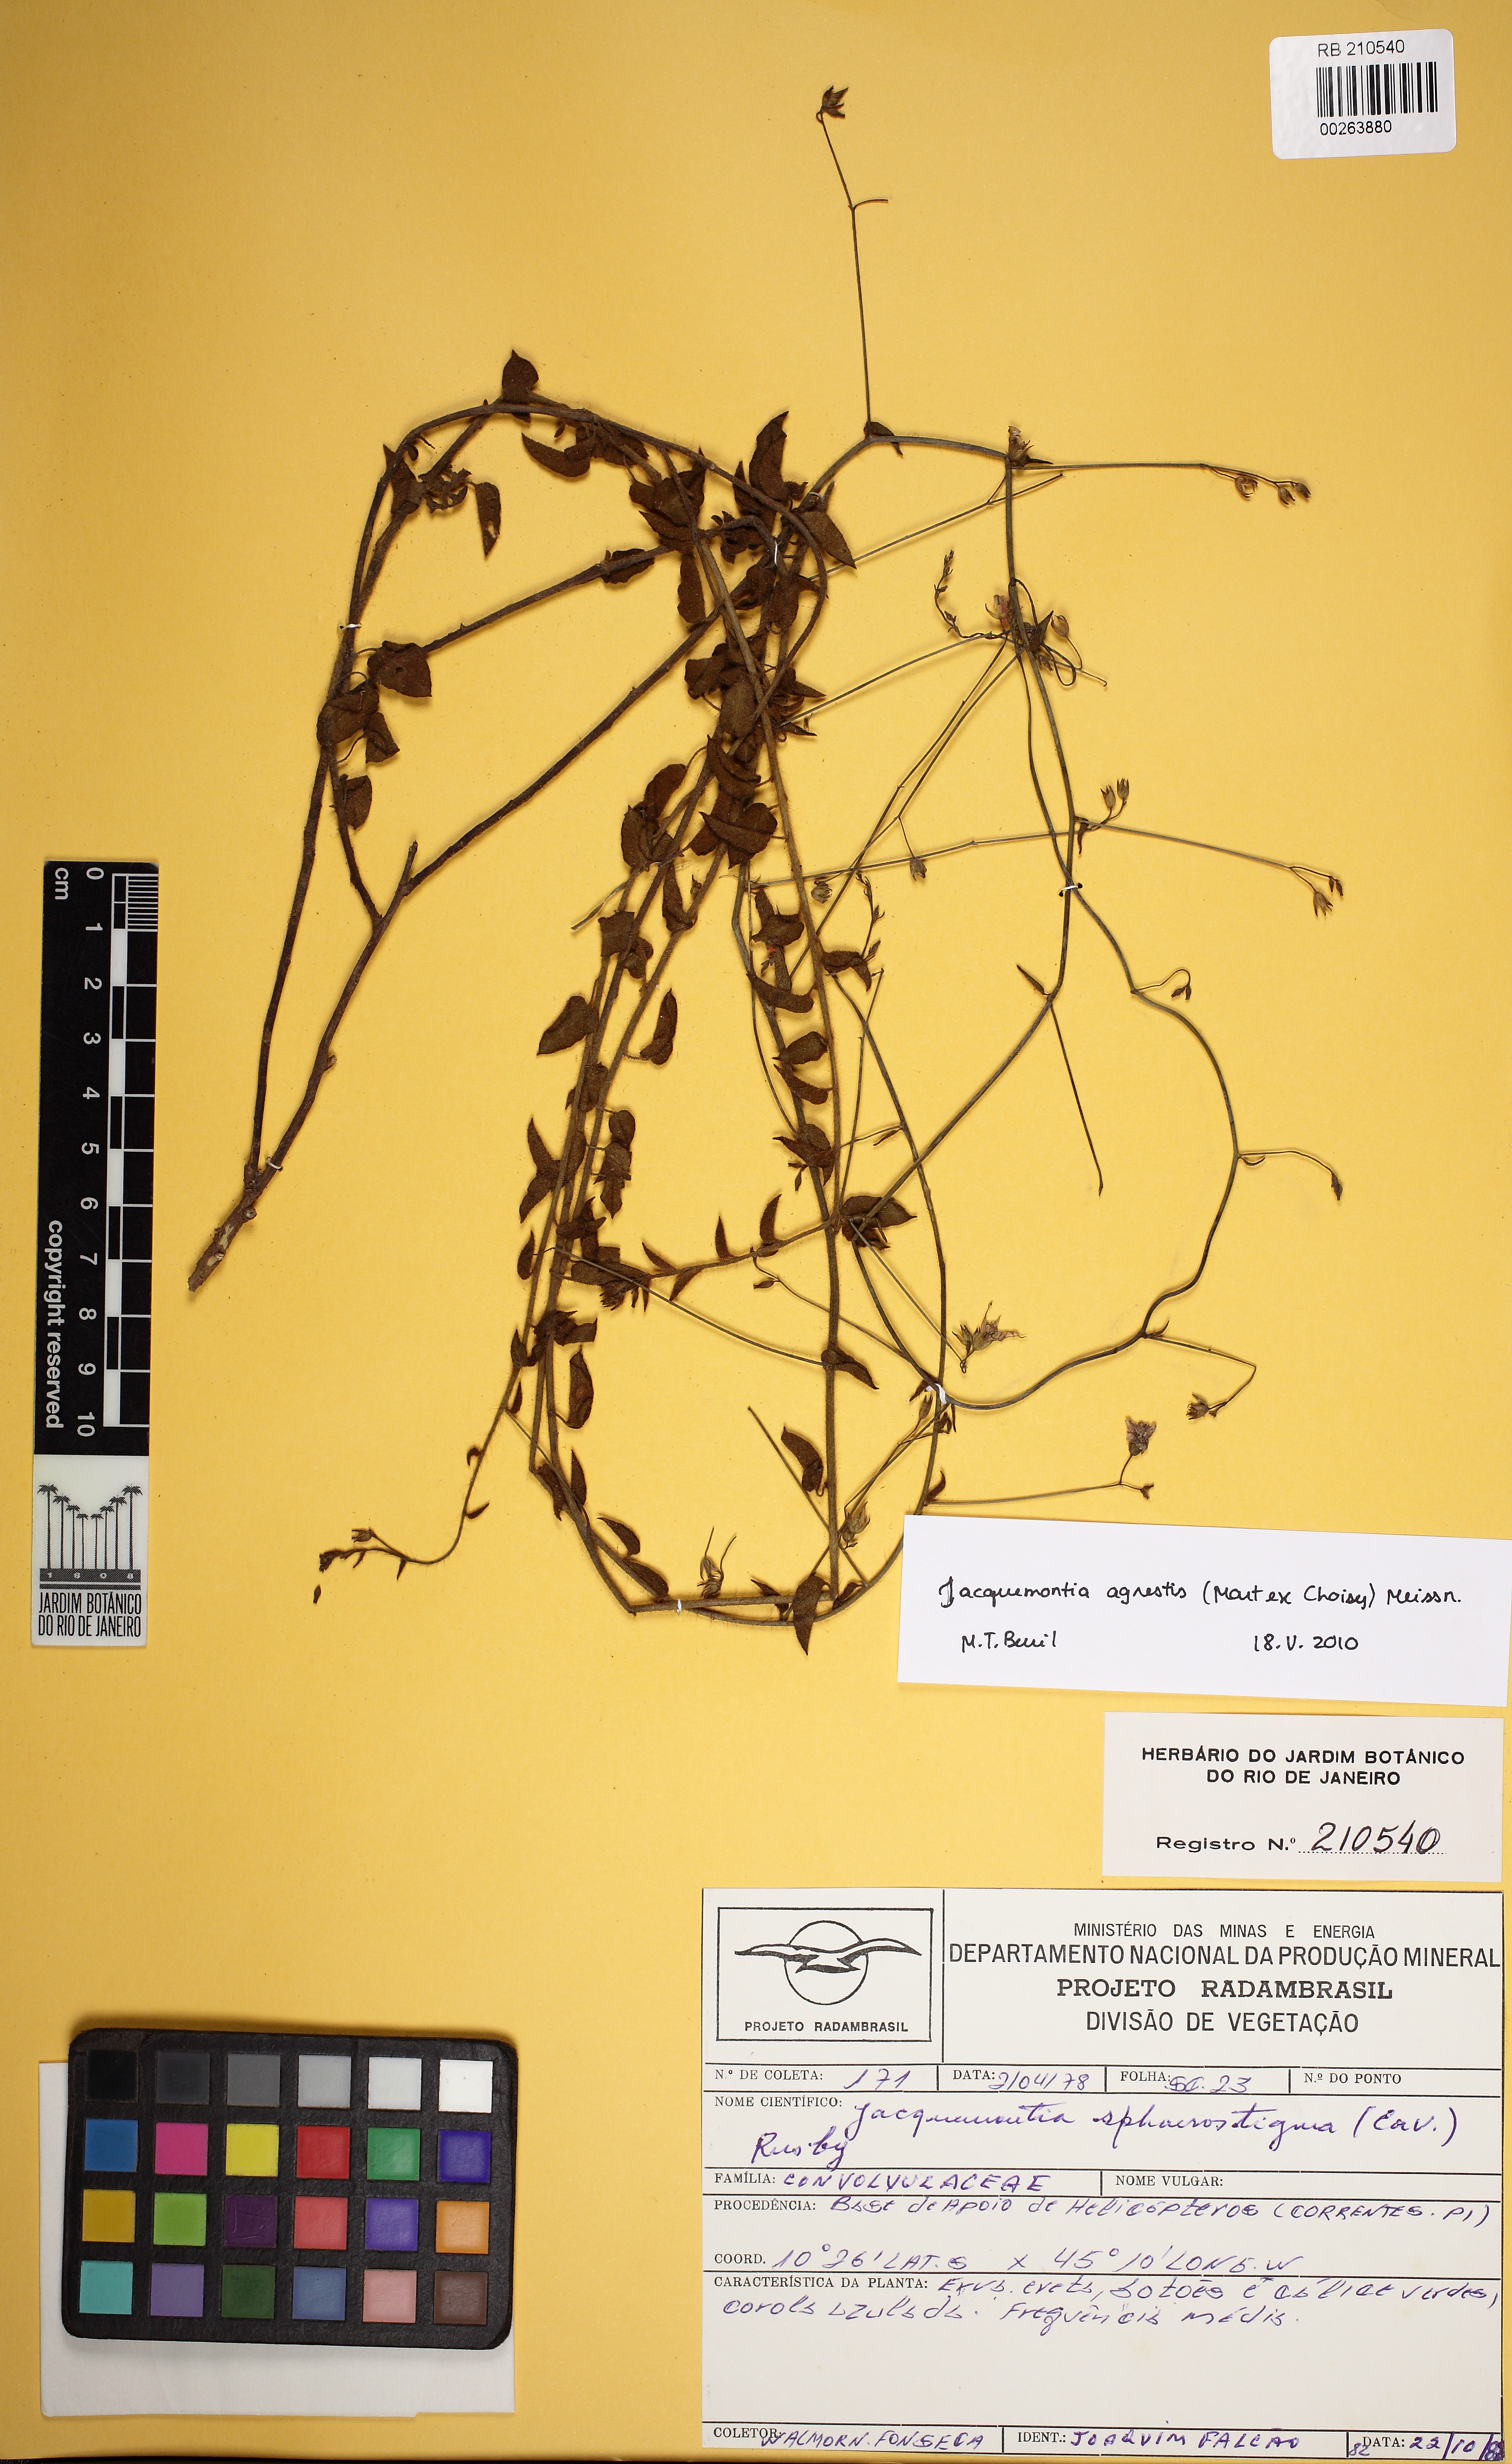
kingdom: Plantae
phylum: Tracheophyta
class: Magnoliopsida
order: Solanales
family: Convolvulaceae
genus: Jacquemontia
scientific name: Jacquemontia agrestis
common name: Midnightblue clustervine
